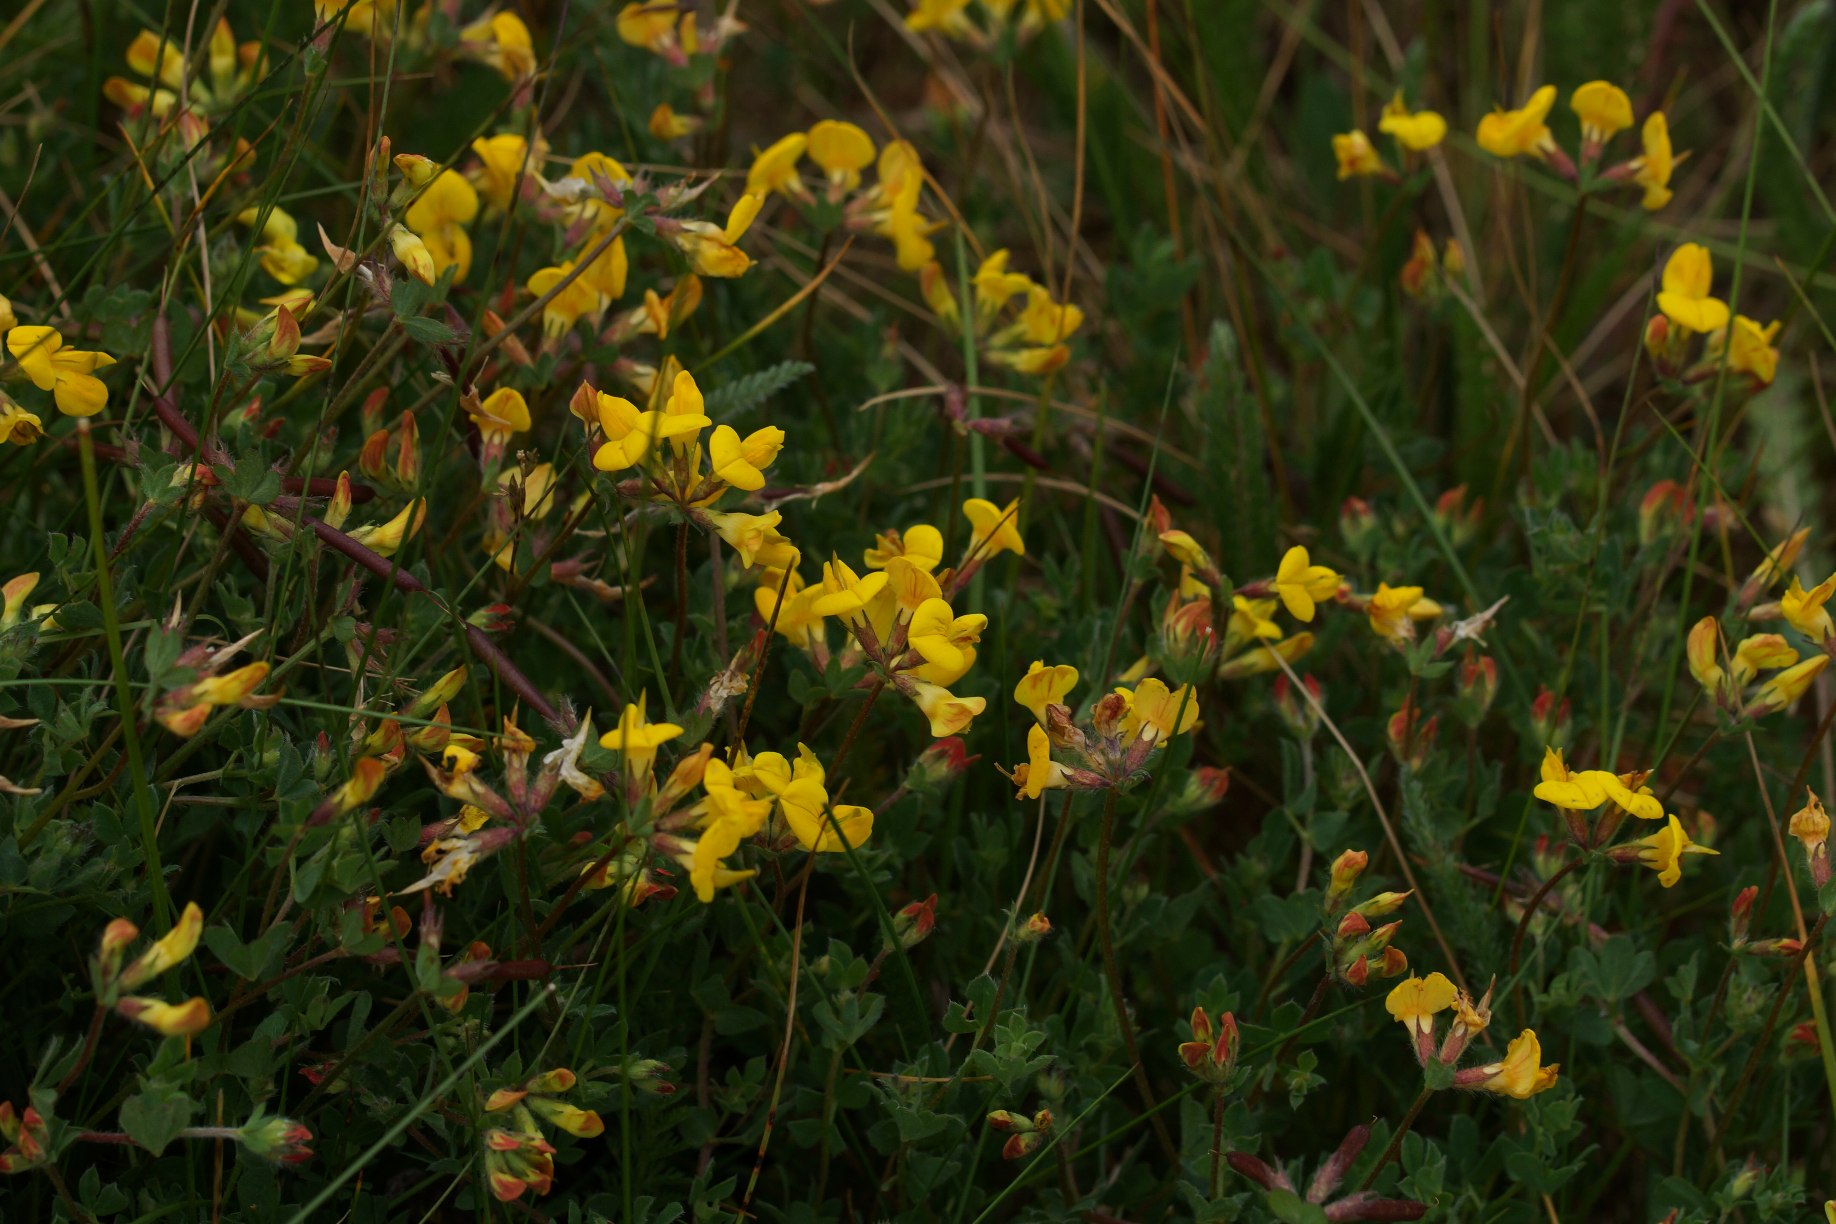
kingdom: Plantae
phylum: Tracheophyta
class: Magnoliopsida
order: Fabales
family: Fabaceae
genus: Lotus
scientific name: Lotus corniculatus
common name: Almindelig kællingetand
